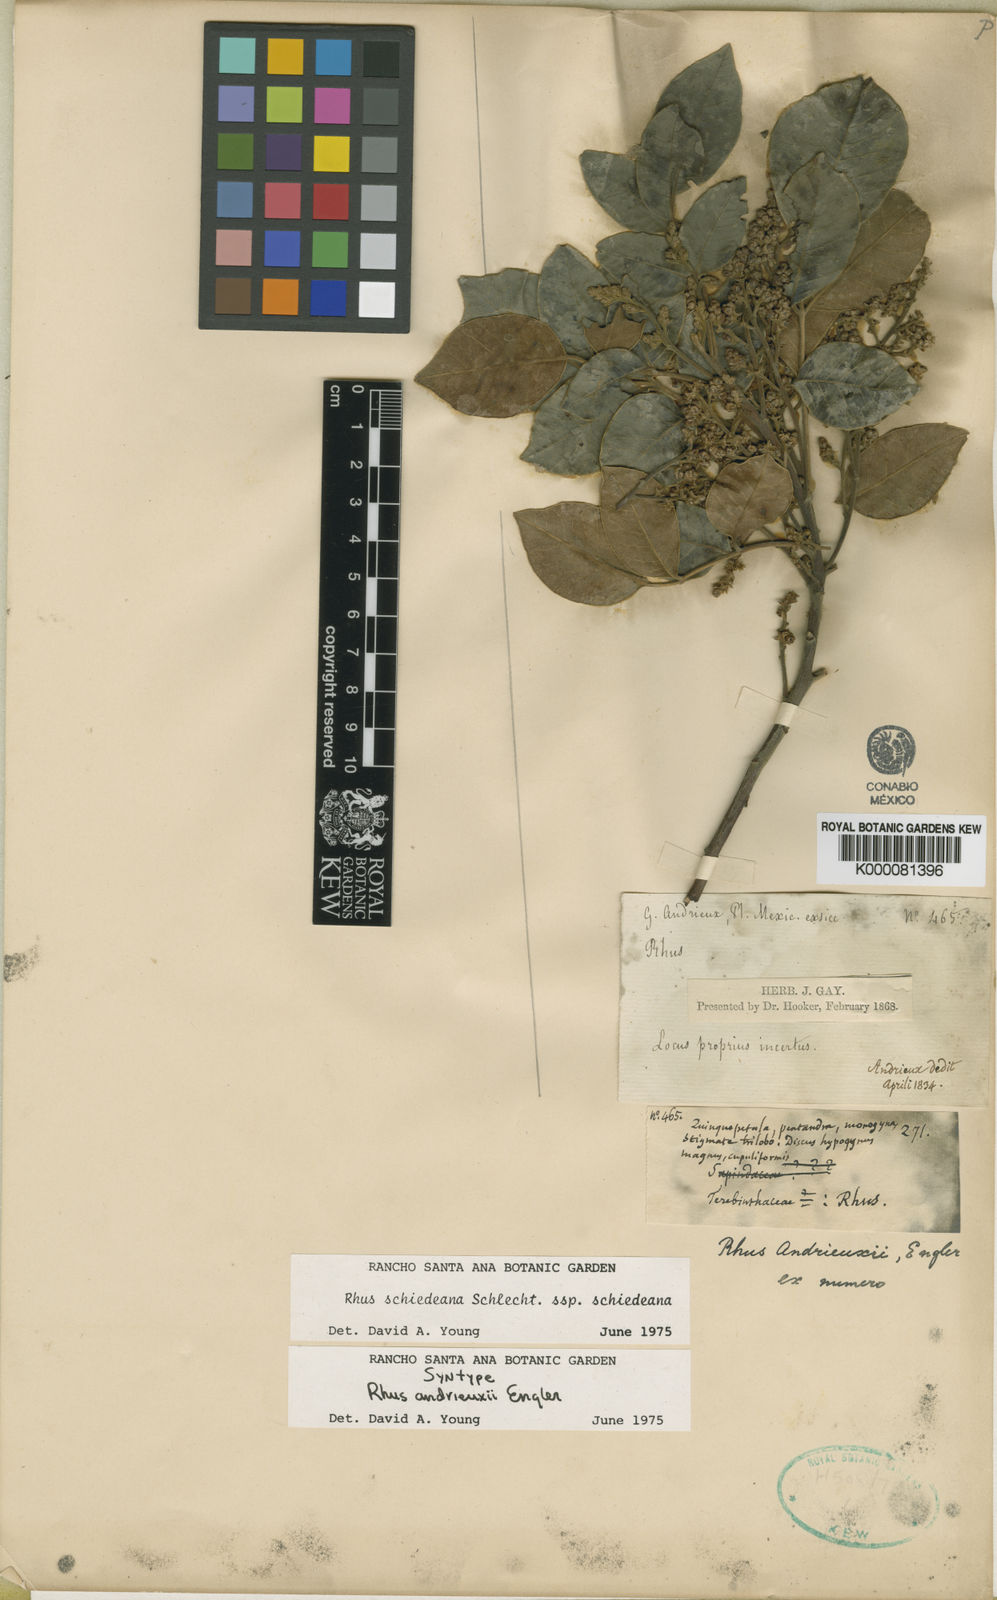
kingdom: Plantae
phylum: Tracheophyta
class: Magnoliopsida
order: Sapindales
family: Anacardiaceae
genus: Rhus
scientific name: Rhus andrieuxii
